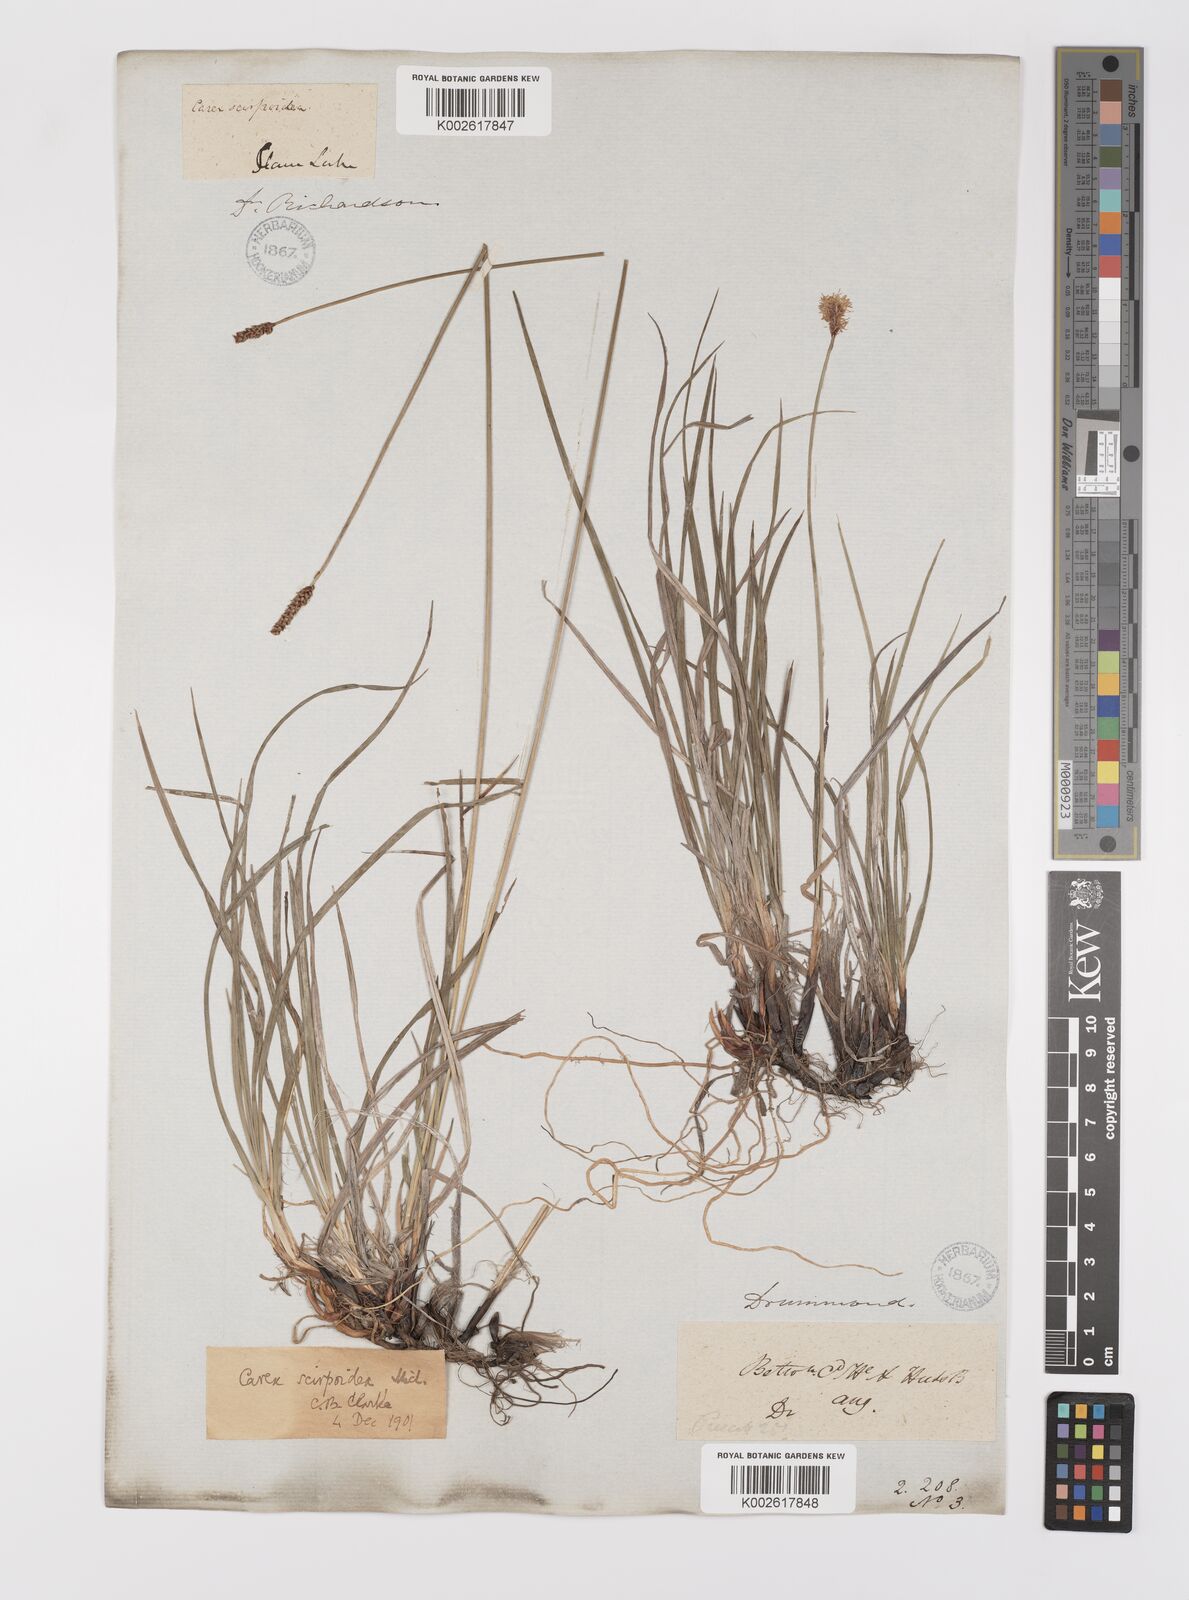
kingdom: Plantae
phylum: Tracheophyta
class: Liliopsida
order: Poales
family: Cyperaceae
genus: Carex
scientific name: Carex scirpoidea
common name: Canada single-spike sedge
